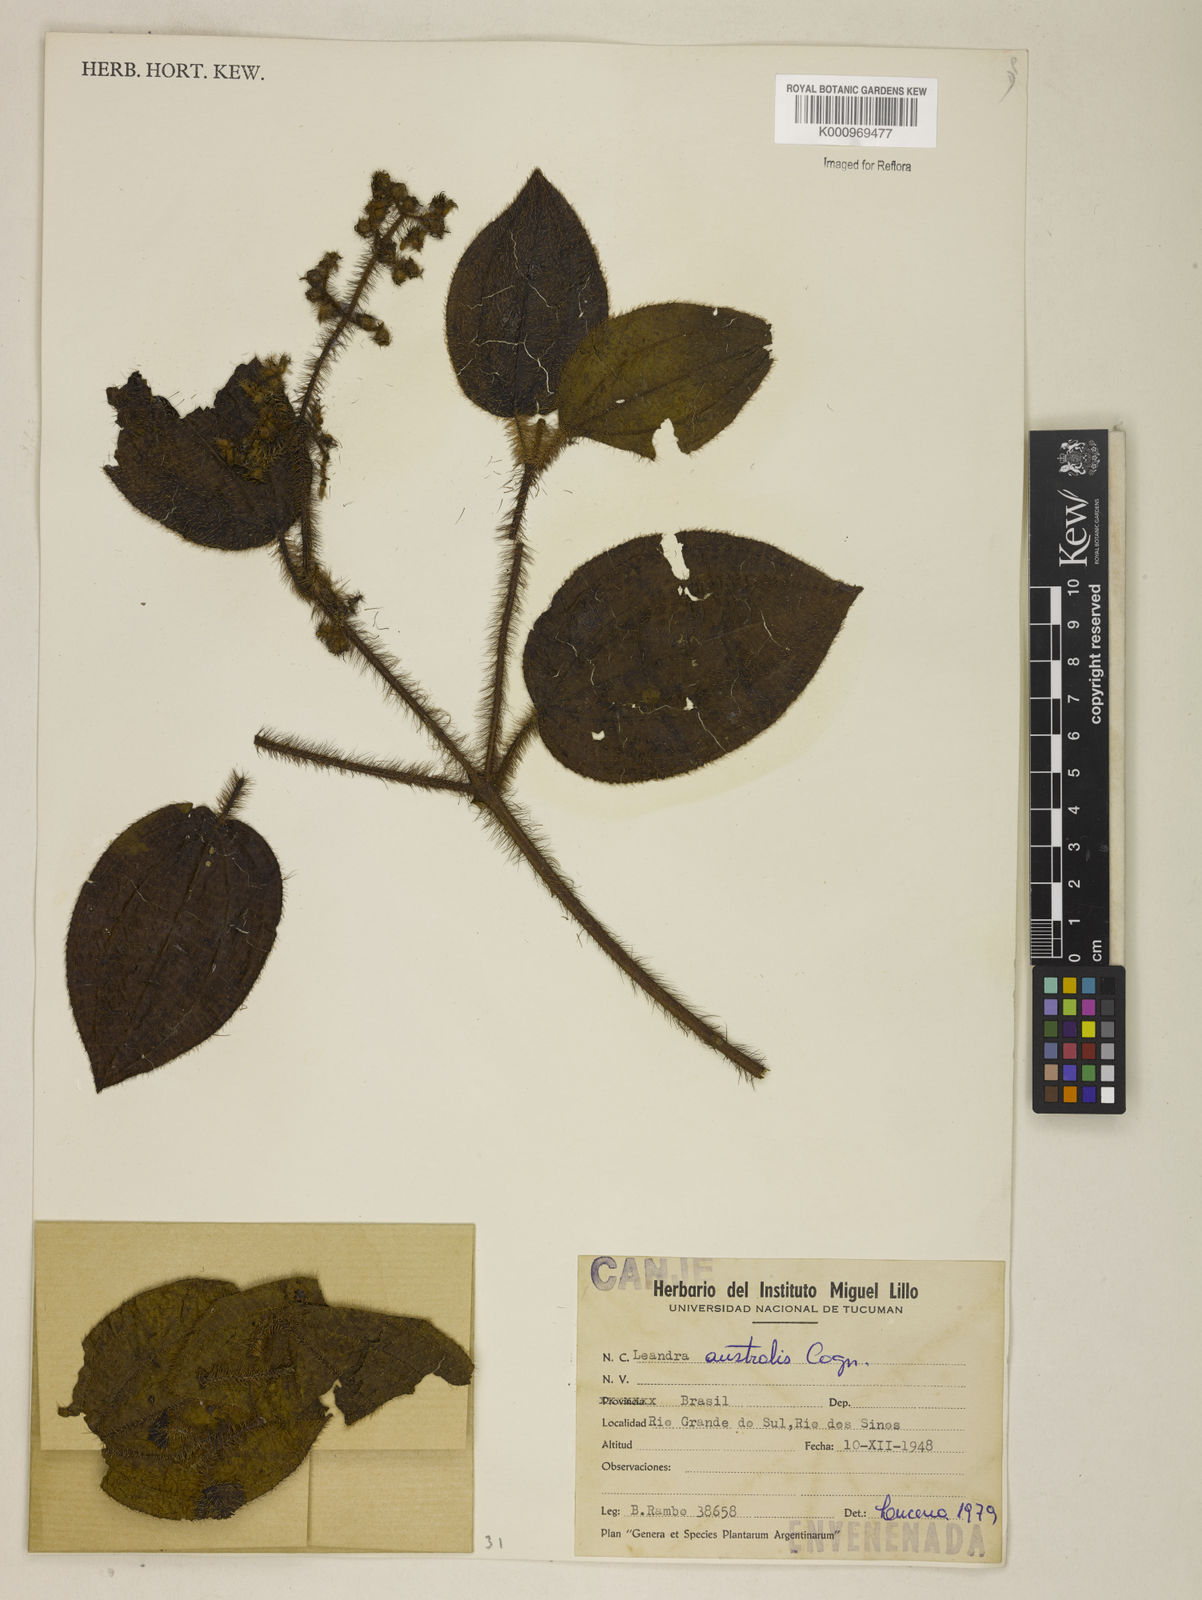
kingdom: Plantae
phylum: Tracheophyta
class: Magnoliopsida
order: Myrtales
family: Melastomataceae
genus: Miconia
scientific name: Miconia australis
